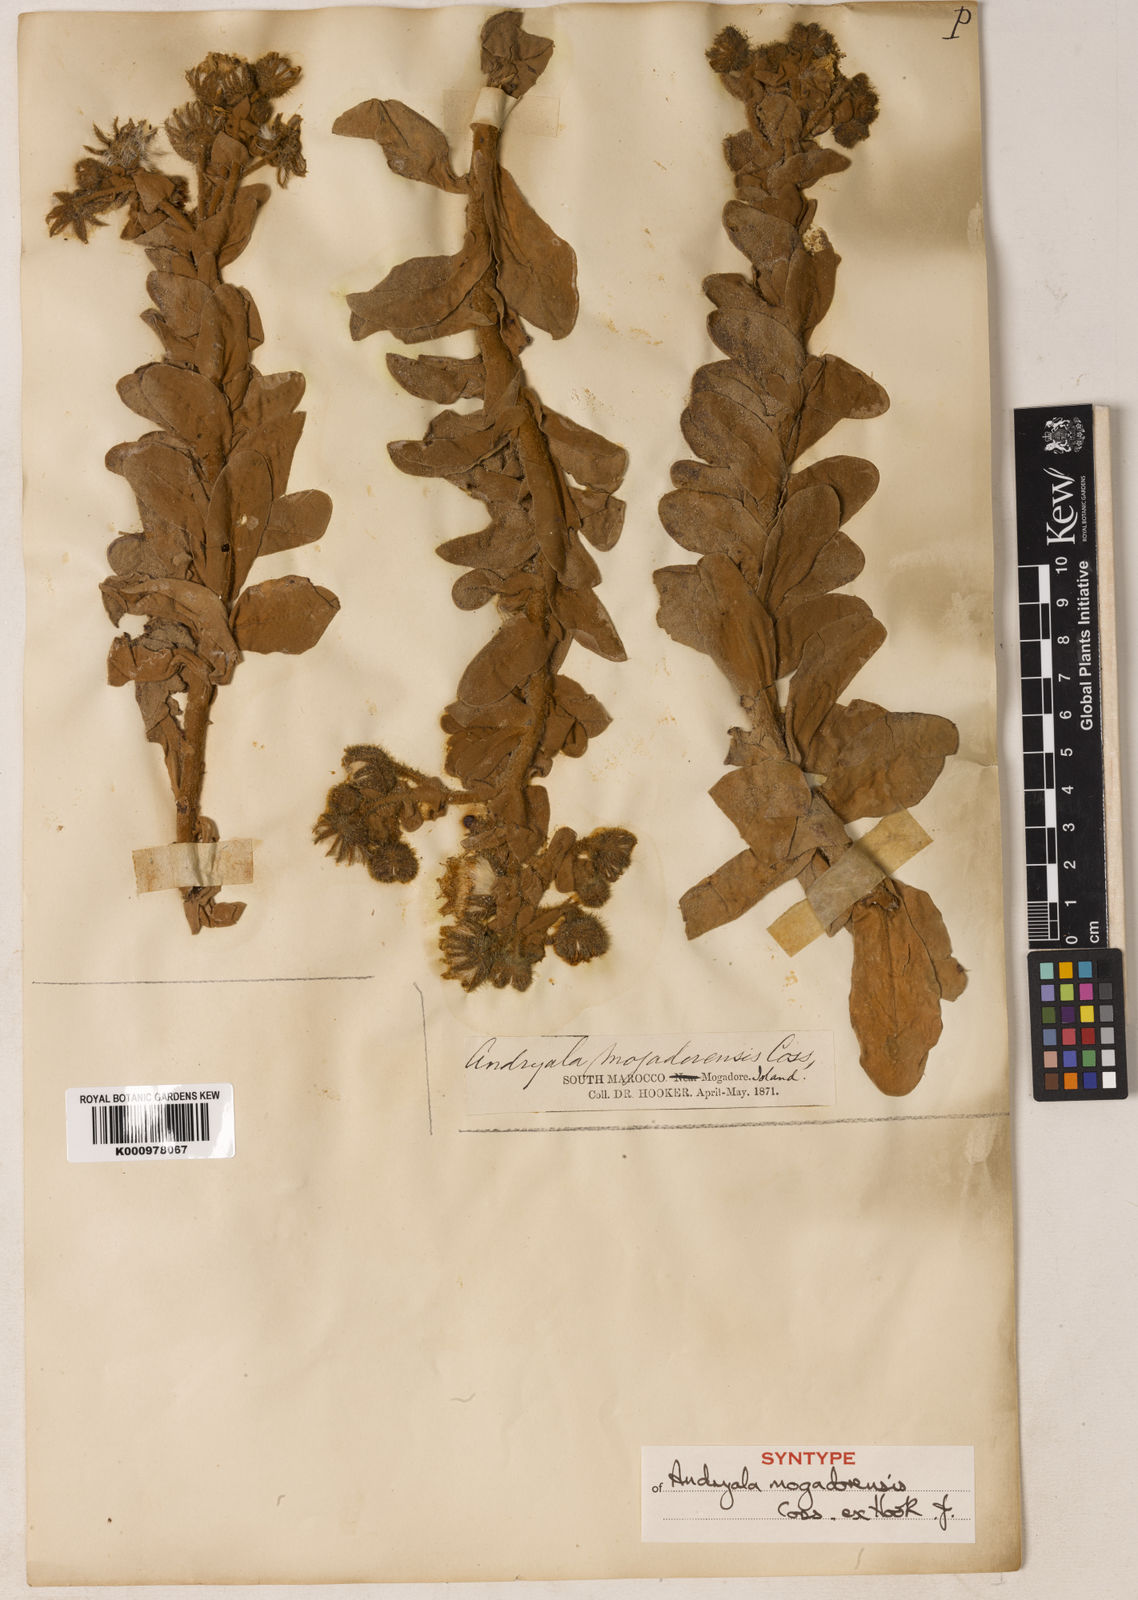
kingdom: Plantae
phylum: Tracheophyta
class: Magnoliopsida
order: Asterales
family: Asteraceae
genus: Andryala
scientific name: Andryala mogadorensis
